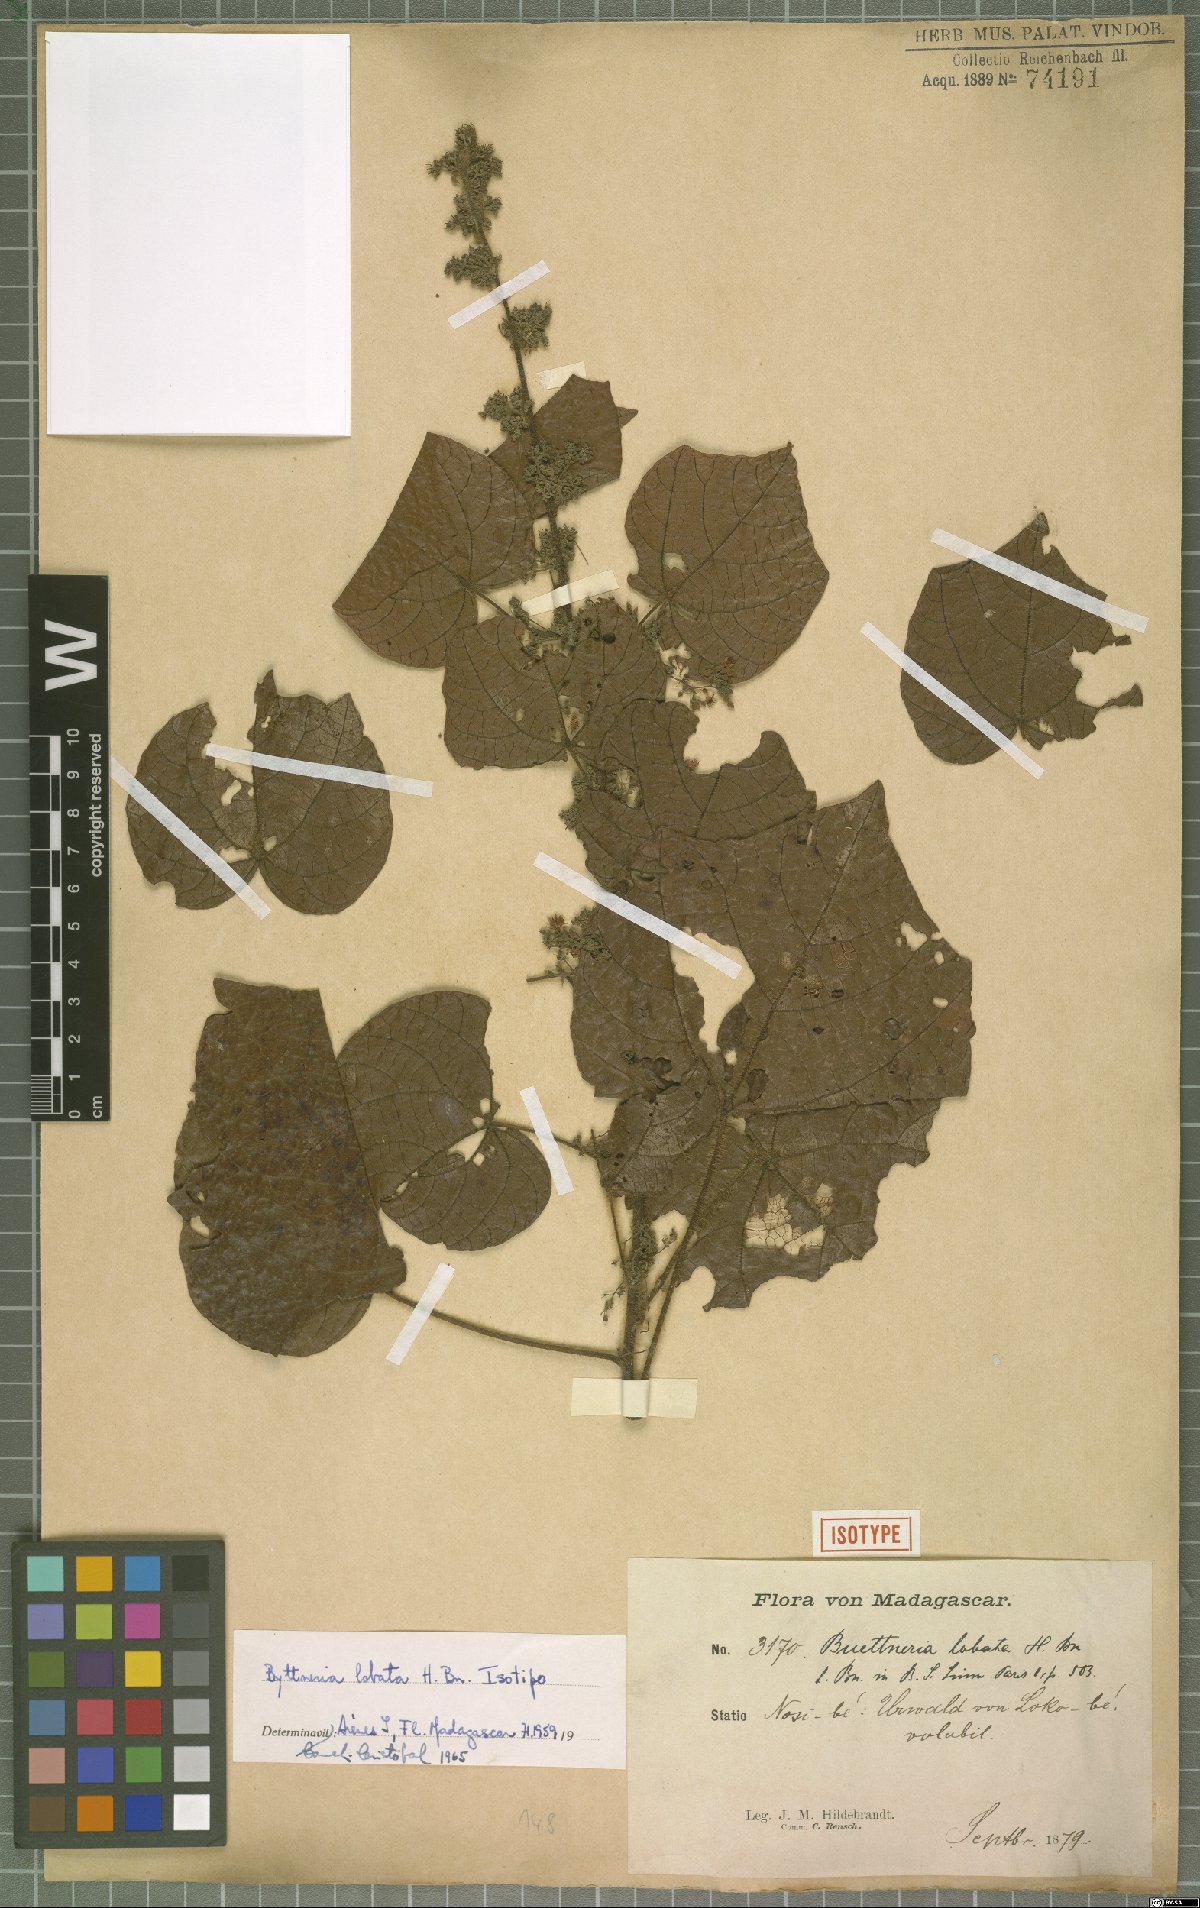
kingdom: Plantae
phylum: Tracheophyta
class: Magnoliopsida
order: Malvales
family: Malvaceae
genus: Byttneria
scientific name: Byttneria lobata
